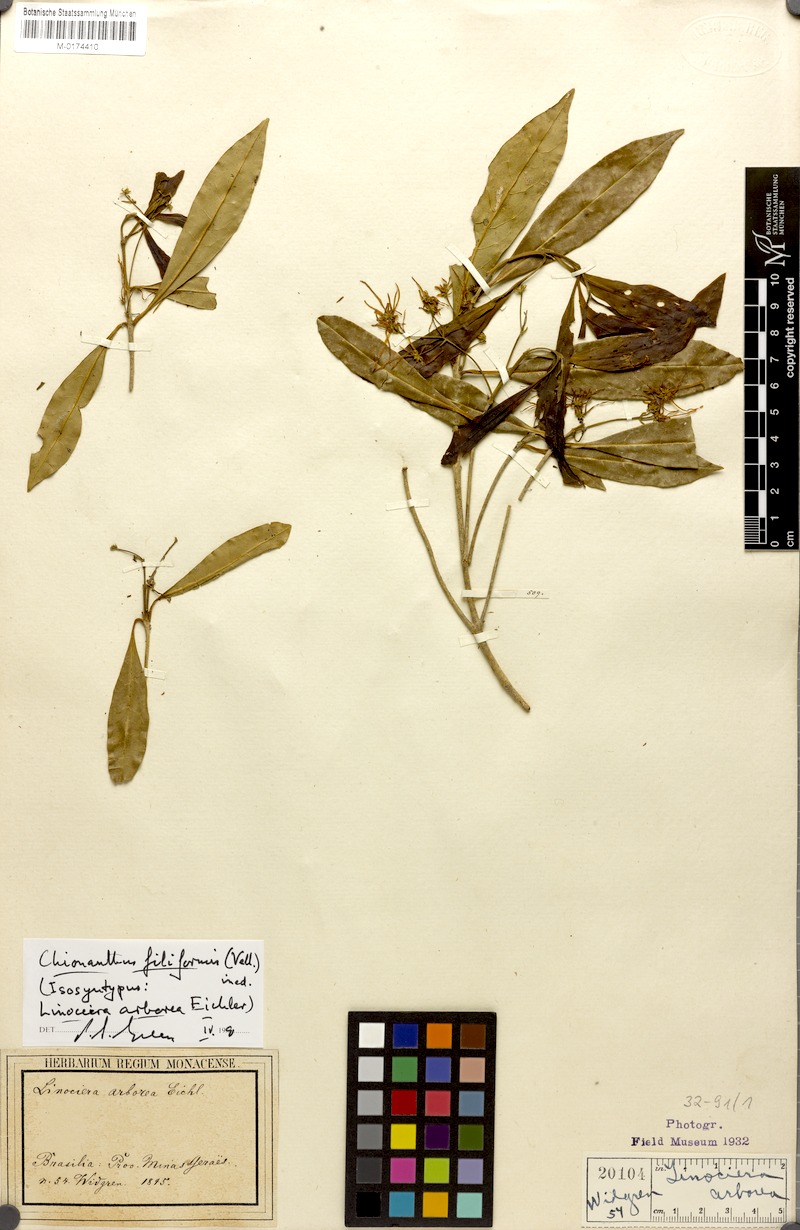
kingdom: Plantae
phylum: Tracheophyta
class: Magnoliopsida
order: Lamiales
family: Oleaceae
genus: Chionanthus
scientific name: Chionanthus trichotomus
